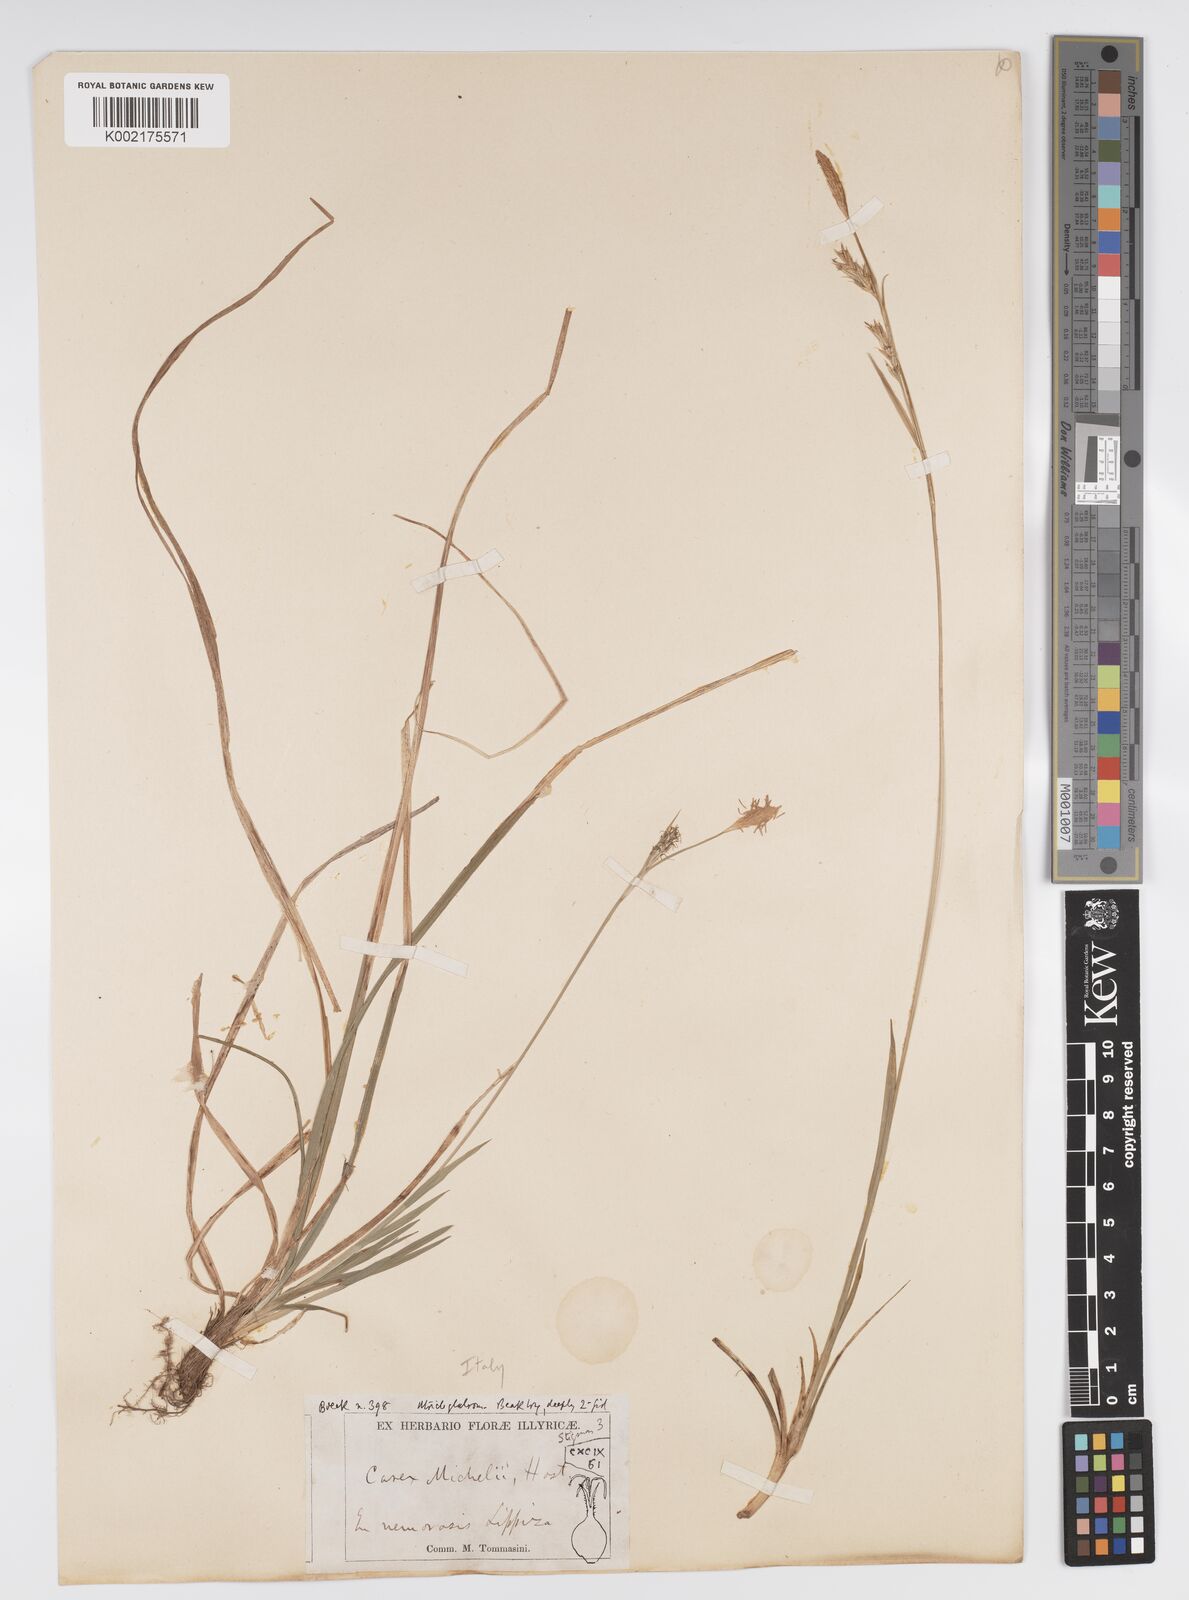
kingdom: Plantae
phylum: Tracheophyta
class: Liliopsida
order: Poales
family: Cyperaceae
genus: Carex
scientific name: Carex michelii
